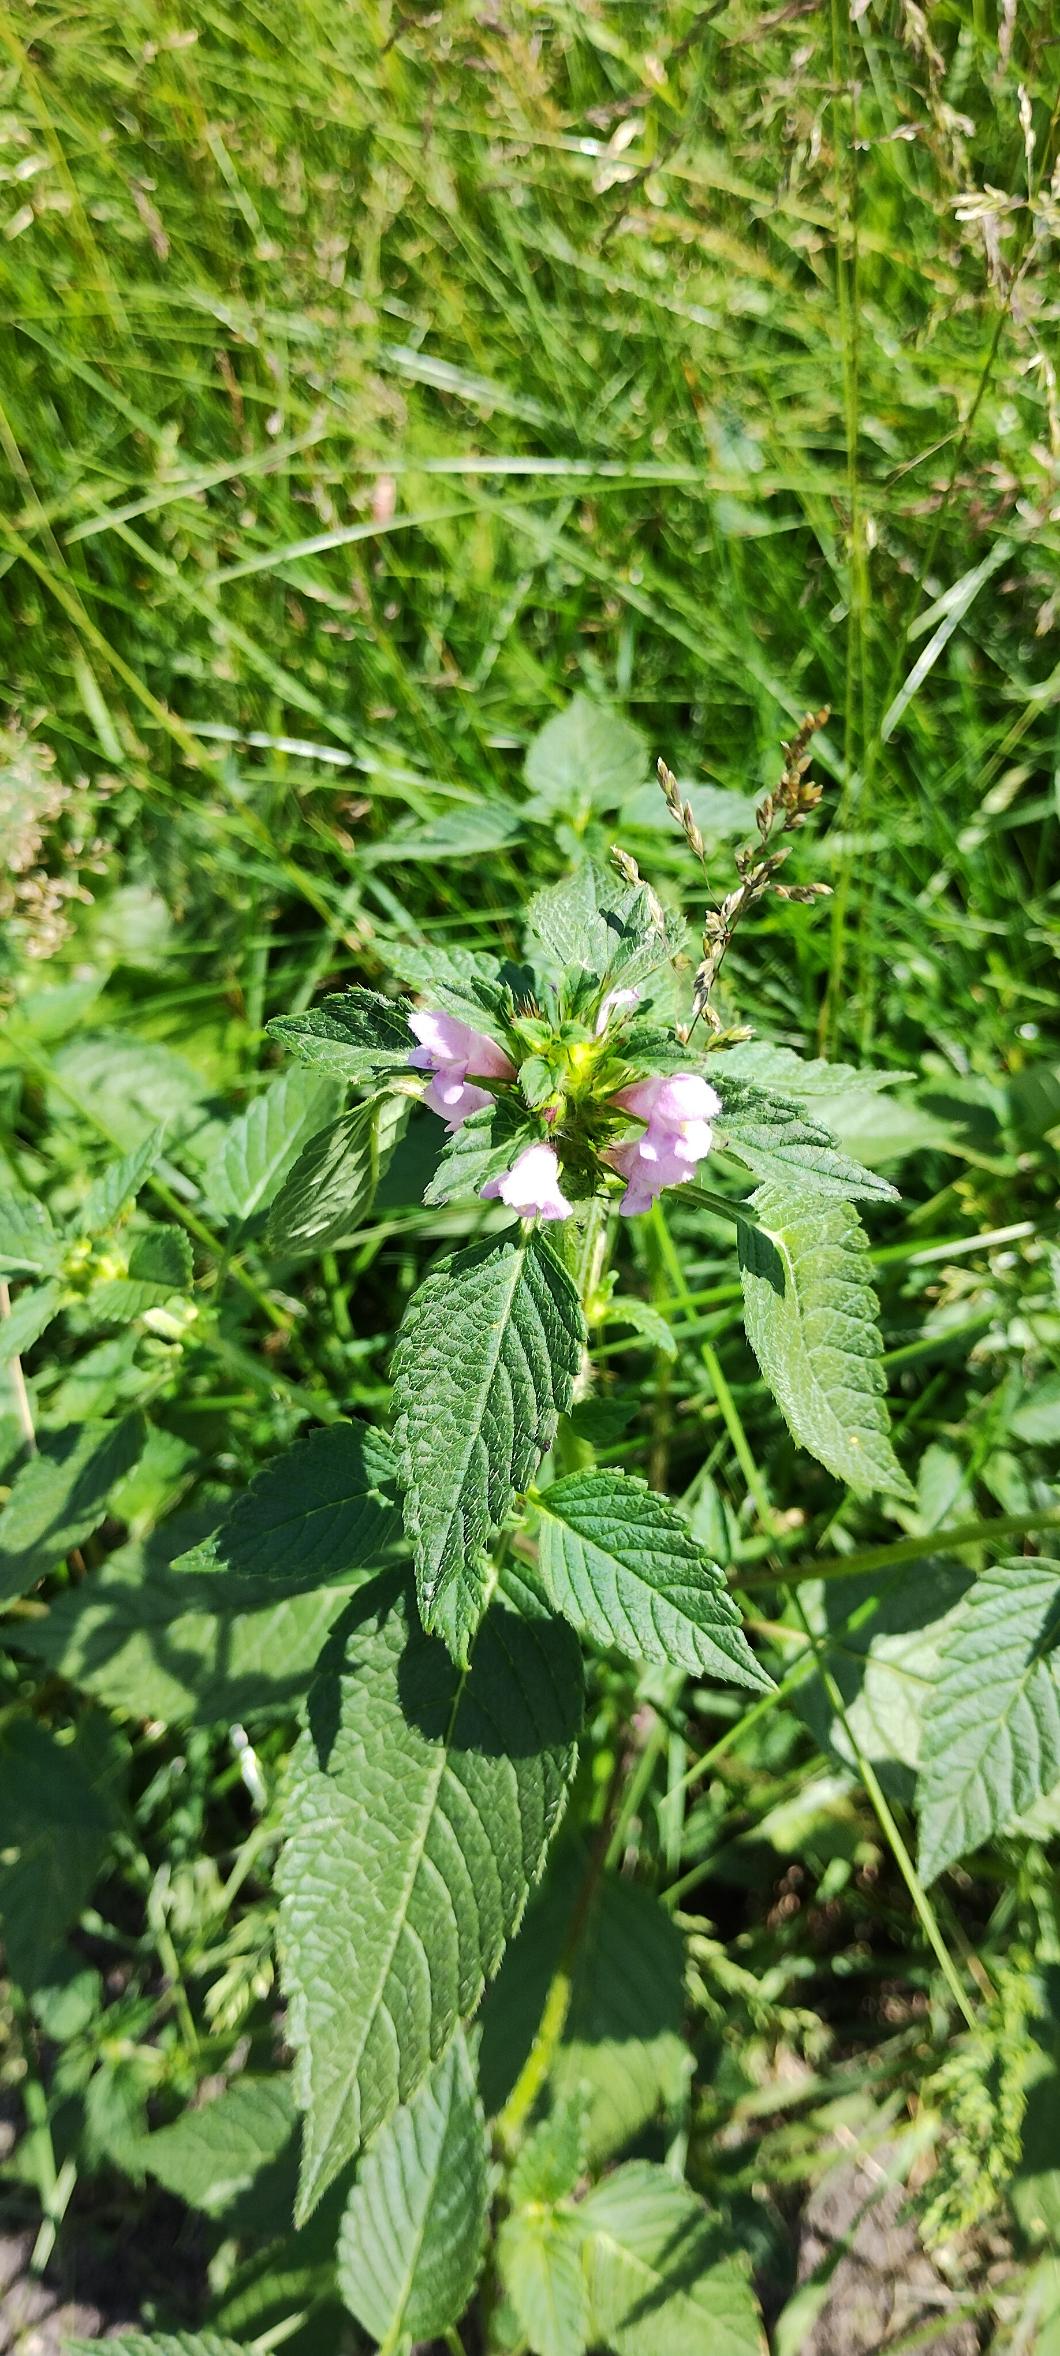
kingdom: Plantae
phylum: Tracheophyta
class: Magnoliopsida
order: Lamiales
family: Lamiaceae
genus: Galeopsis
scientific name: Galeopsis tetrahit
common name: Almindelig hanekro
